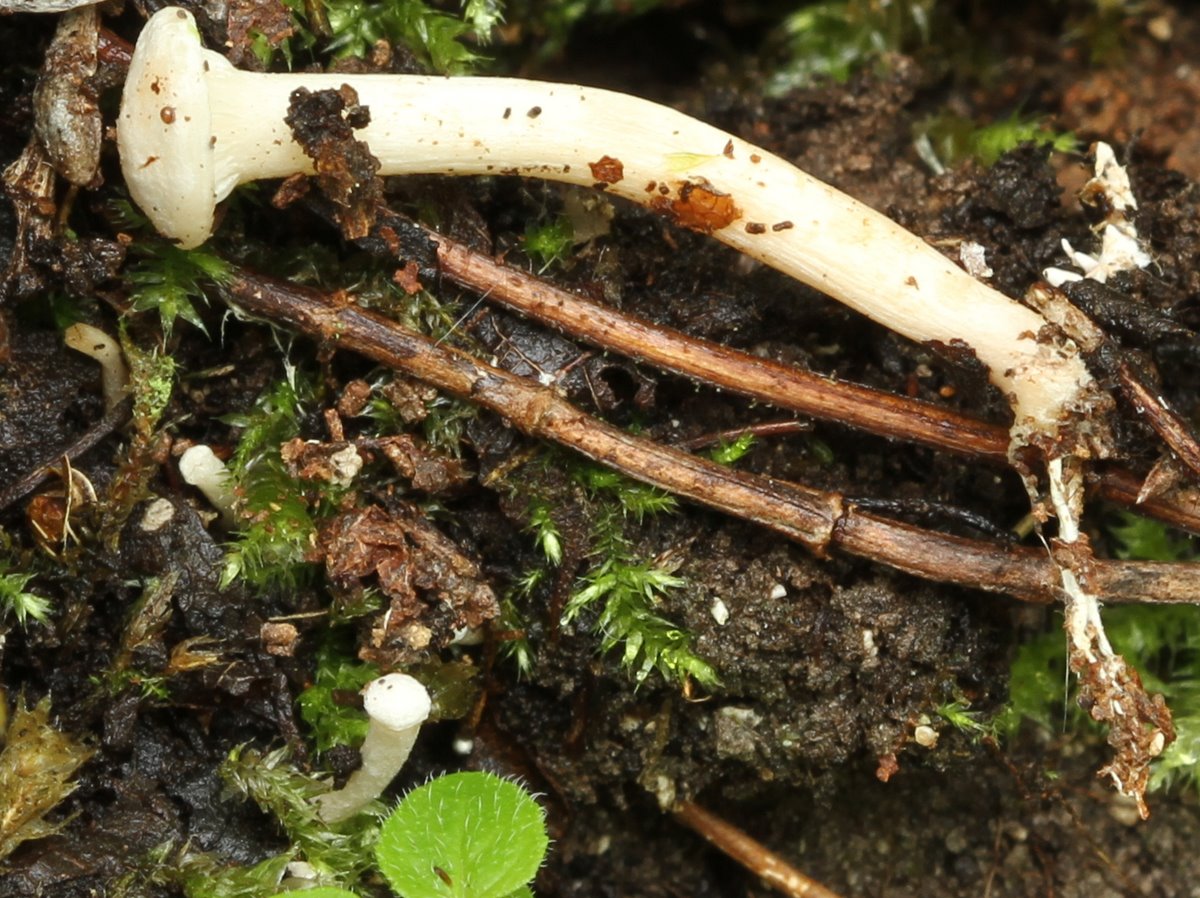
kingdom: Fungi
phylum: Basidiomycota
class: Agaricomycetes
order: Agaricales
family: Tricholomataceae
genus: Clitocybe
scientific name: Clitocybe albofragrans
